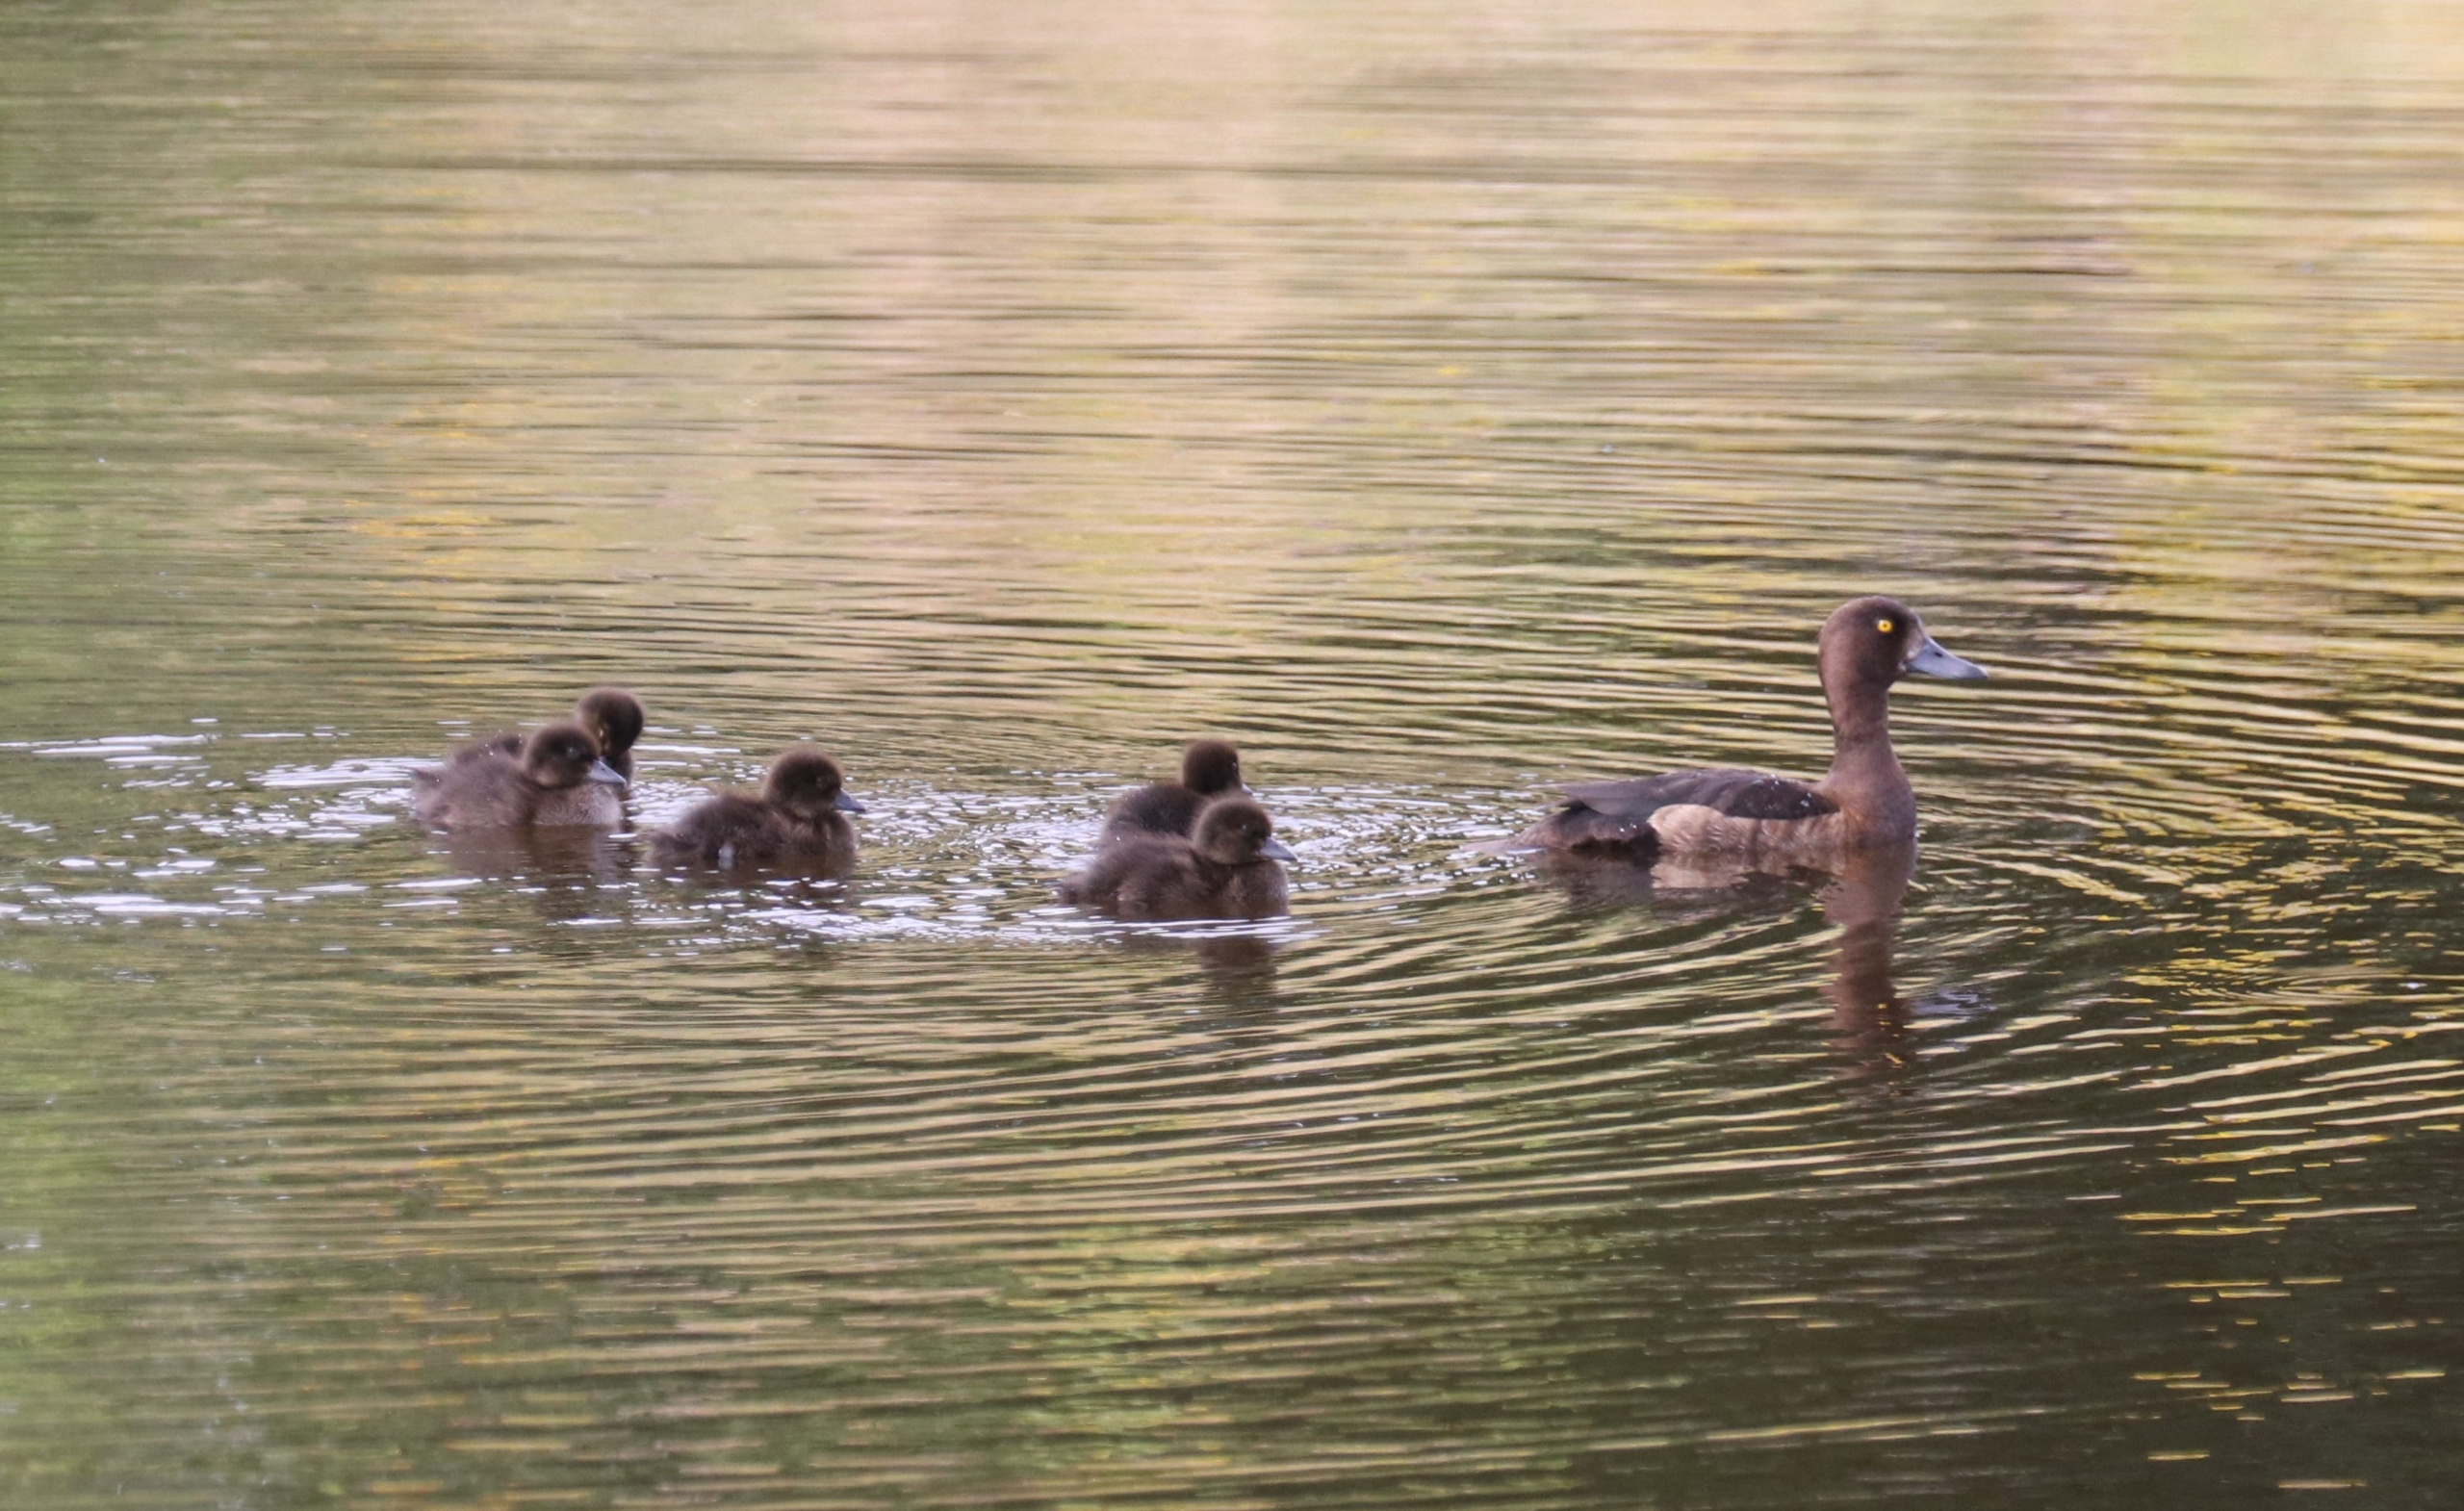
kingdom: Animalia
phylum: Chordata
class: Aves
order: Anseriformes
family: Anatidae
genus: Aythya
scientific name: Aythya fuligula
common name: Troldand
